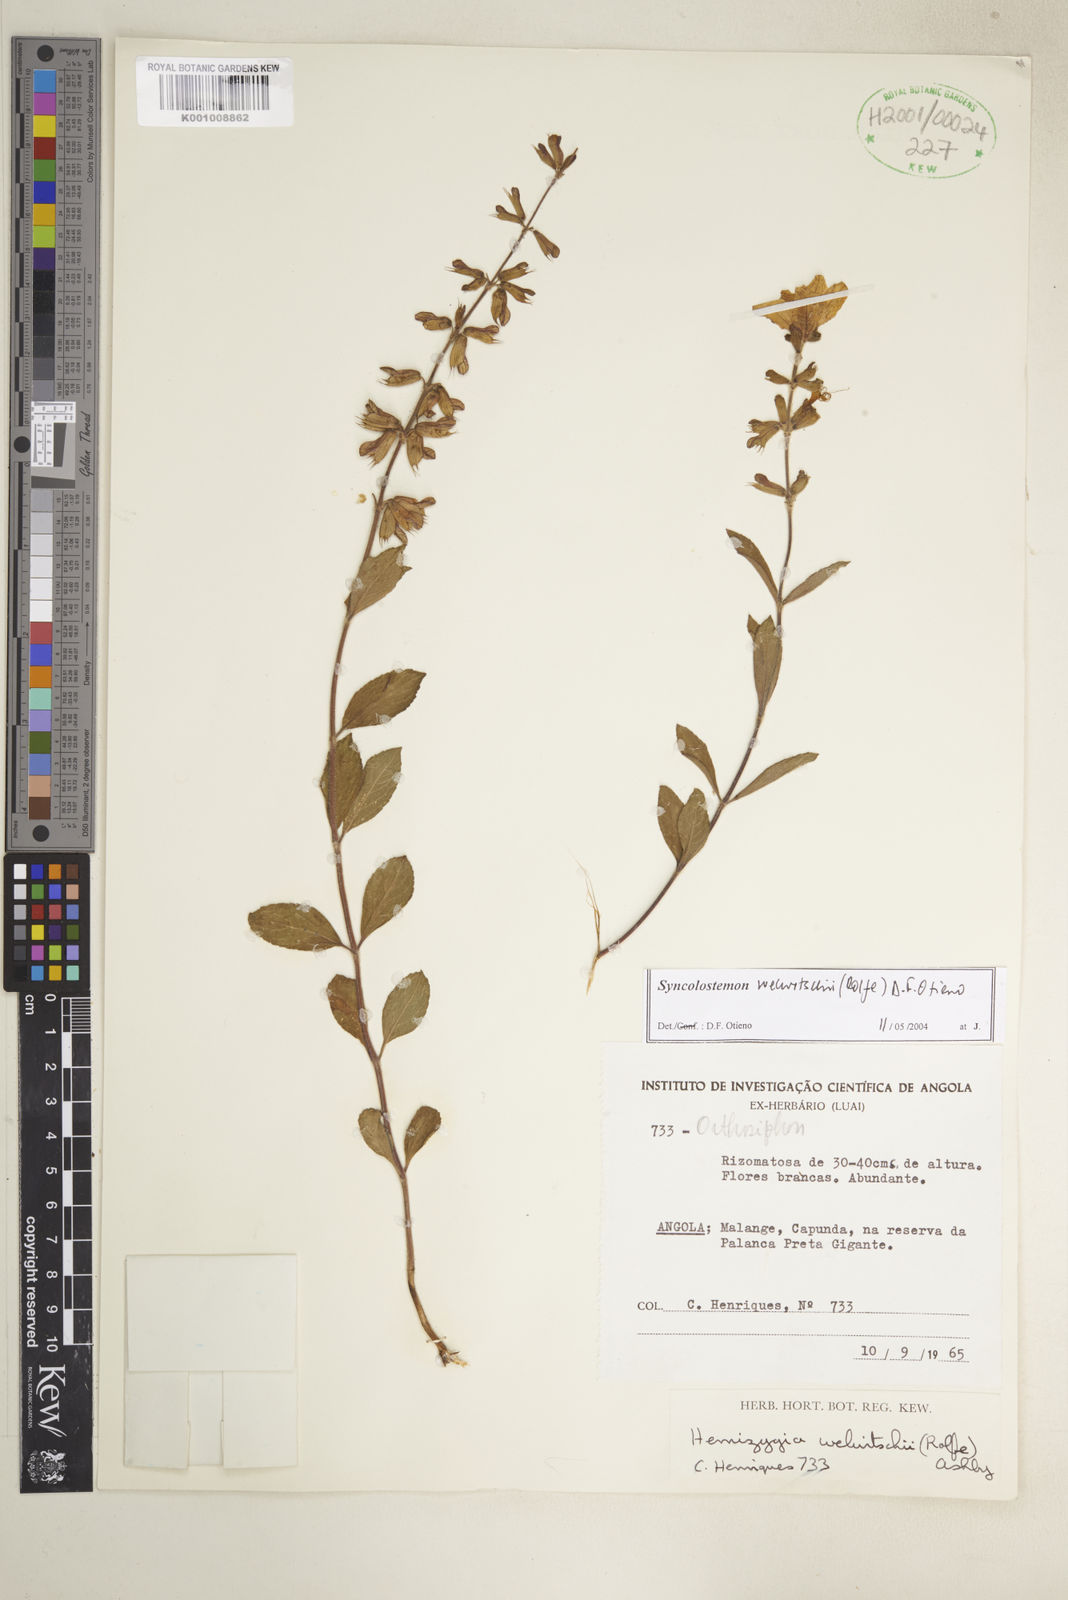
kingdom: Plantae
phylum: Tracheophyta
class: Magnoliopsida
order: Lamiales
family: Lamiaceae
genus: Syncolostemon
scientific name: Syncolostemon welwitschii
